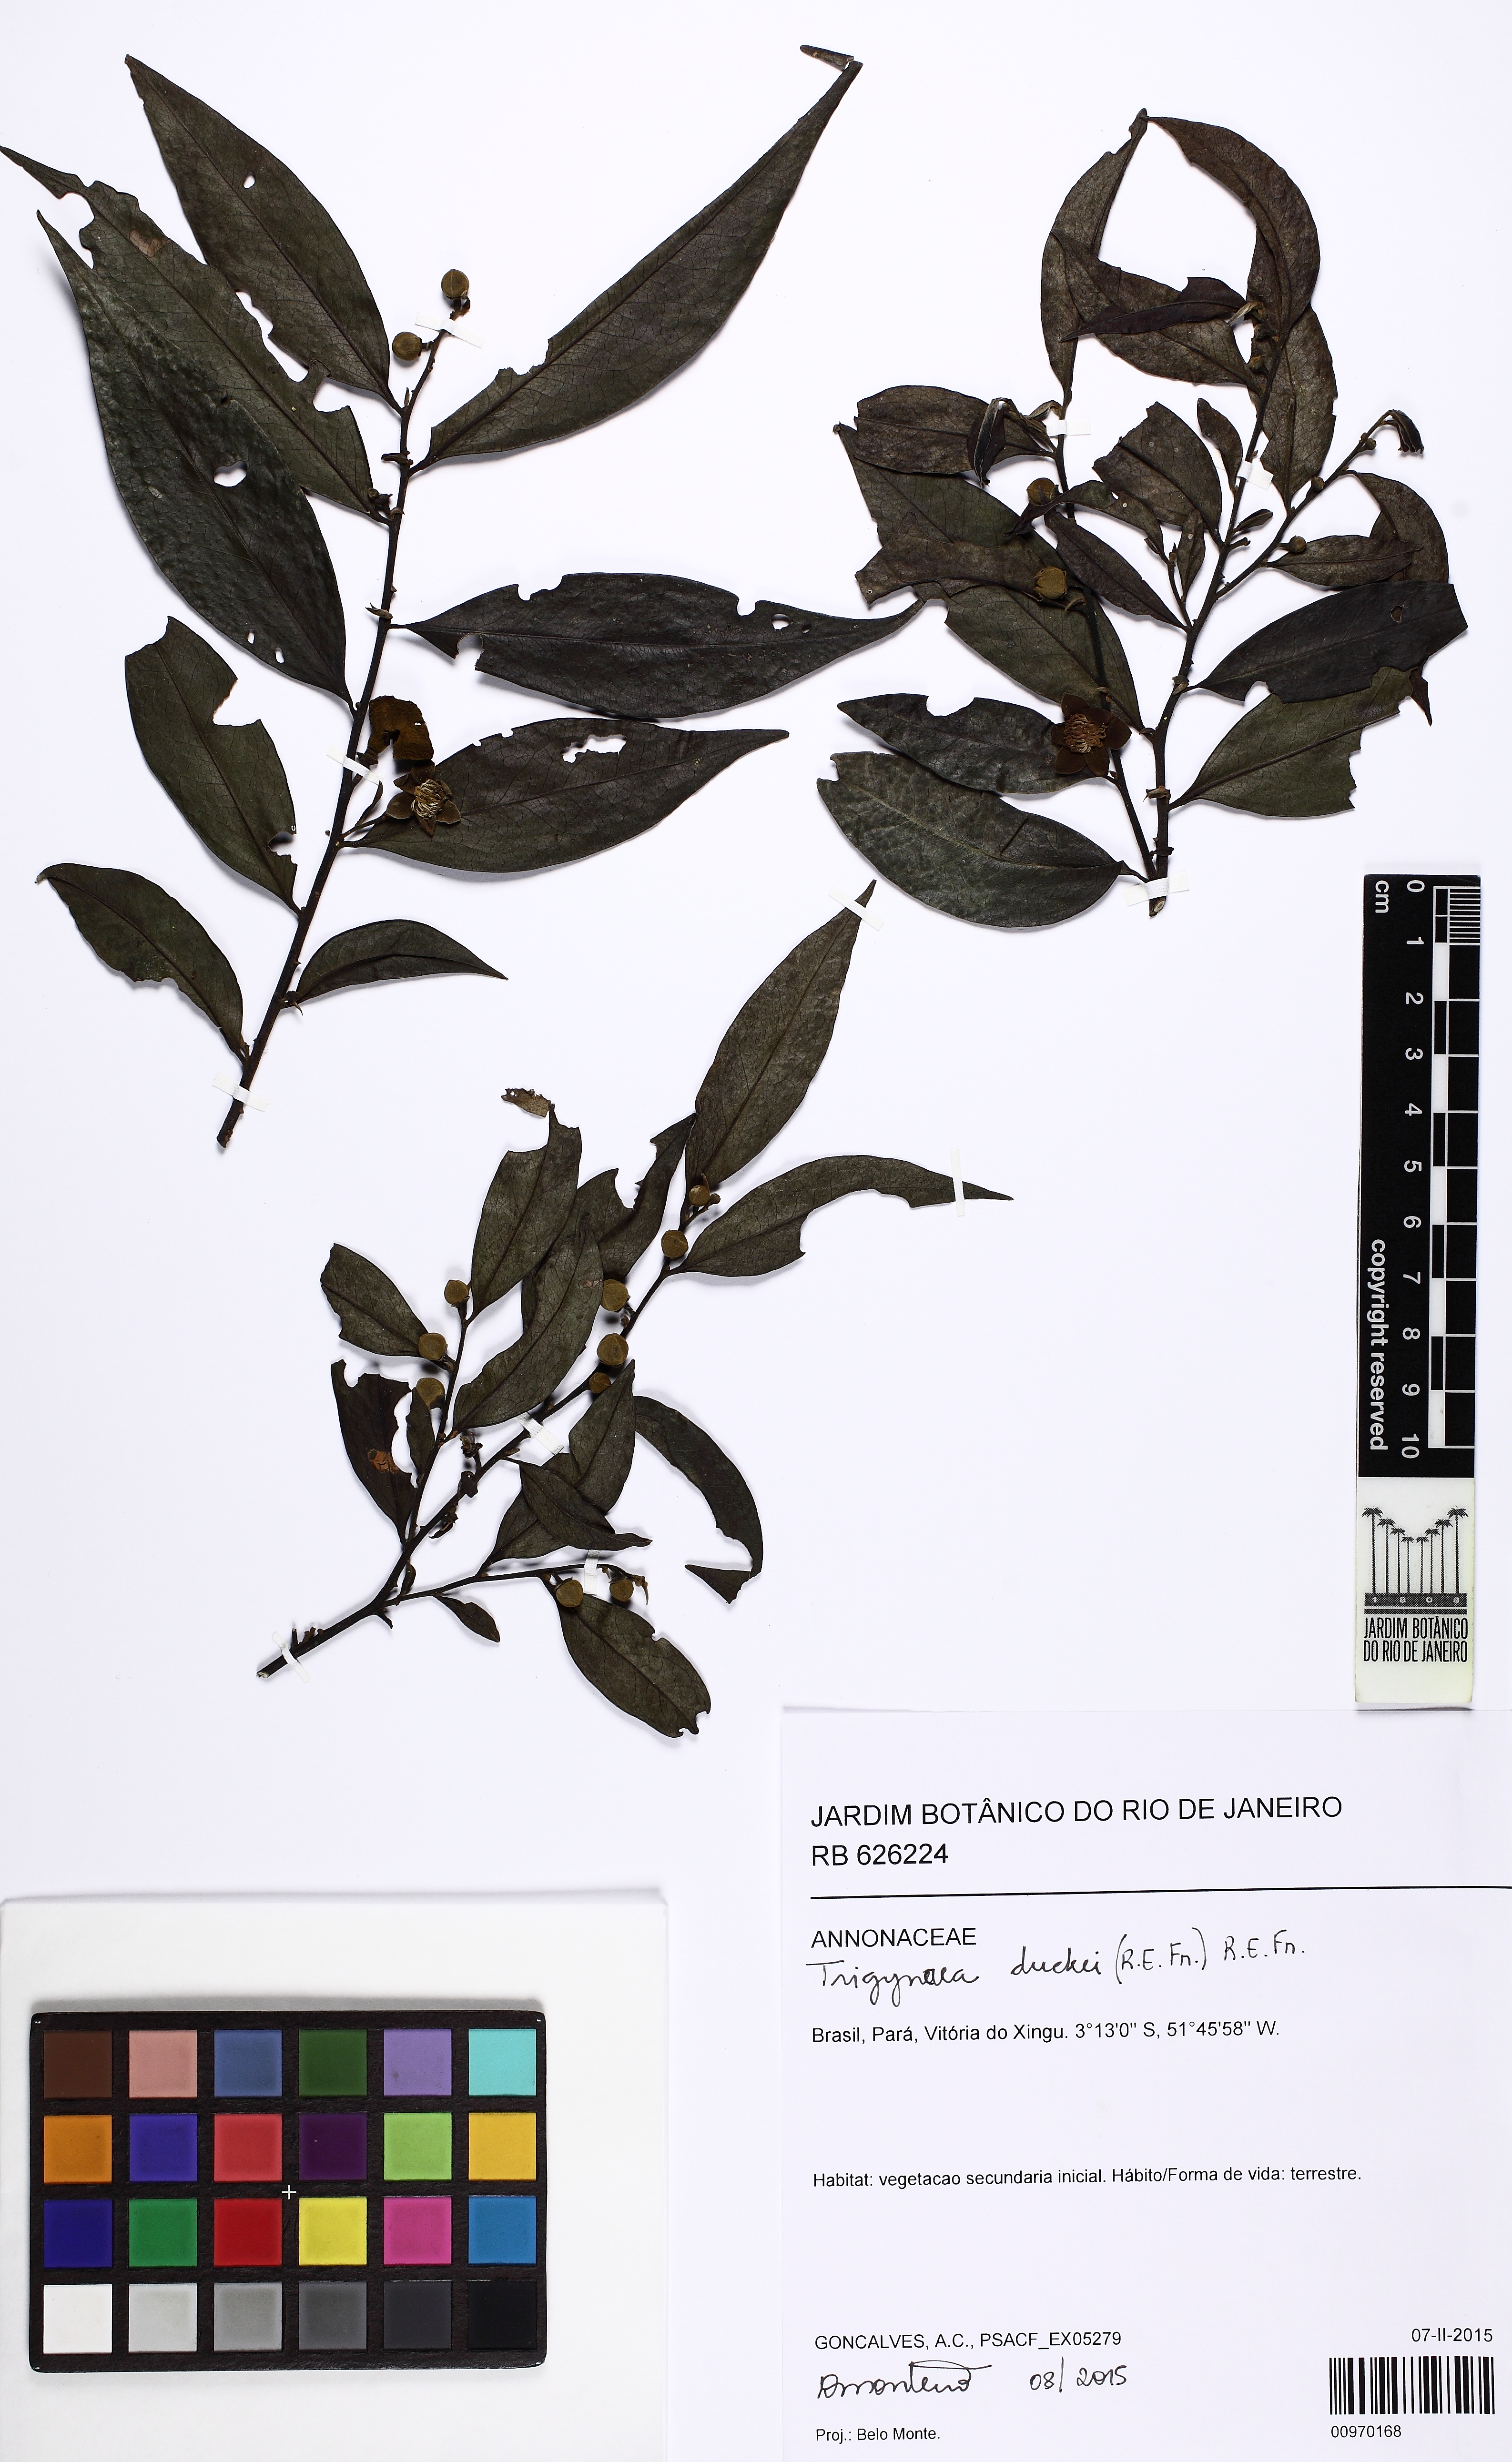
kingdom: Plantae
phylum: Tracheophyta
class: Magnoliopsida
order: Magnoliales
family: Annonaceae
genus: Trigynaea
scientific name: Trigynaea duckei
